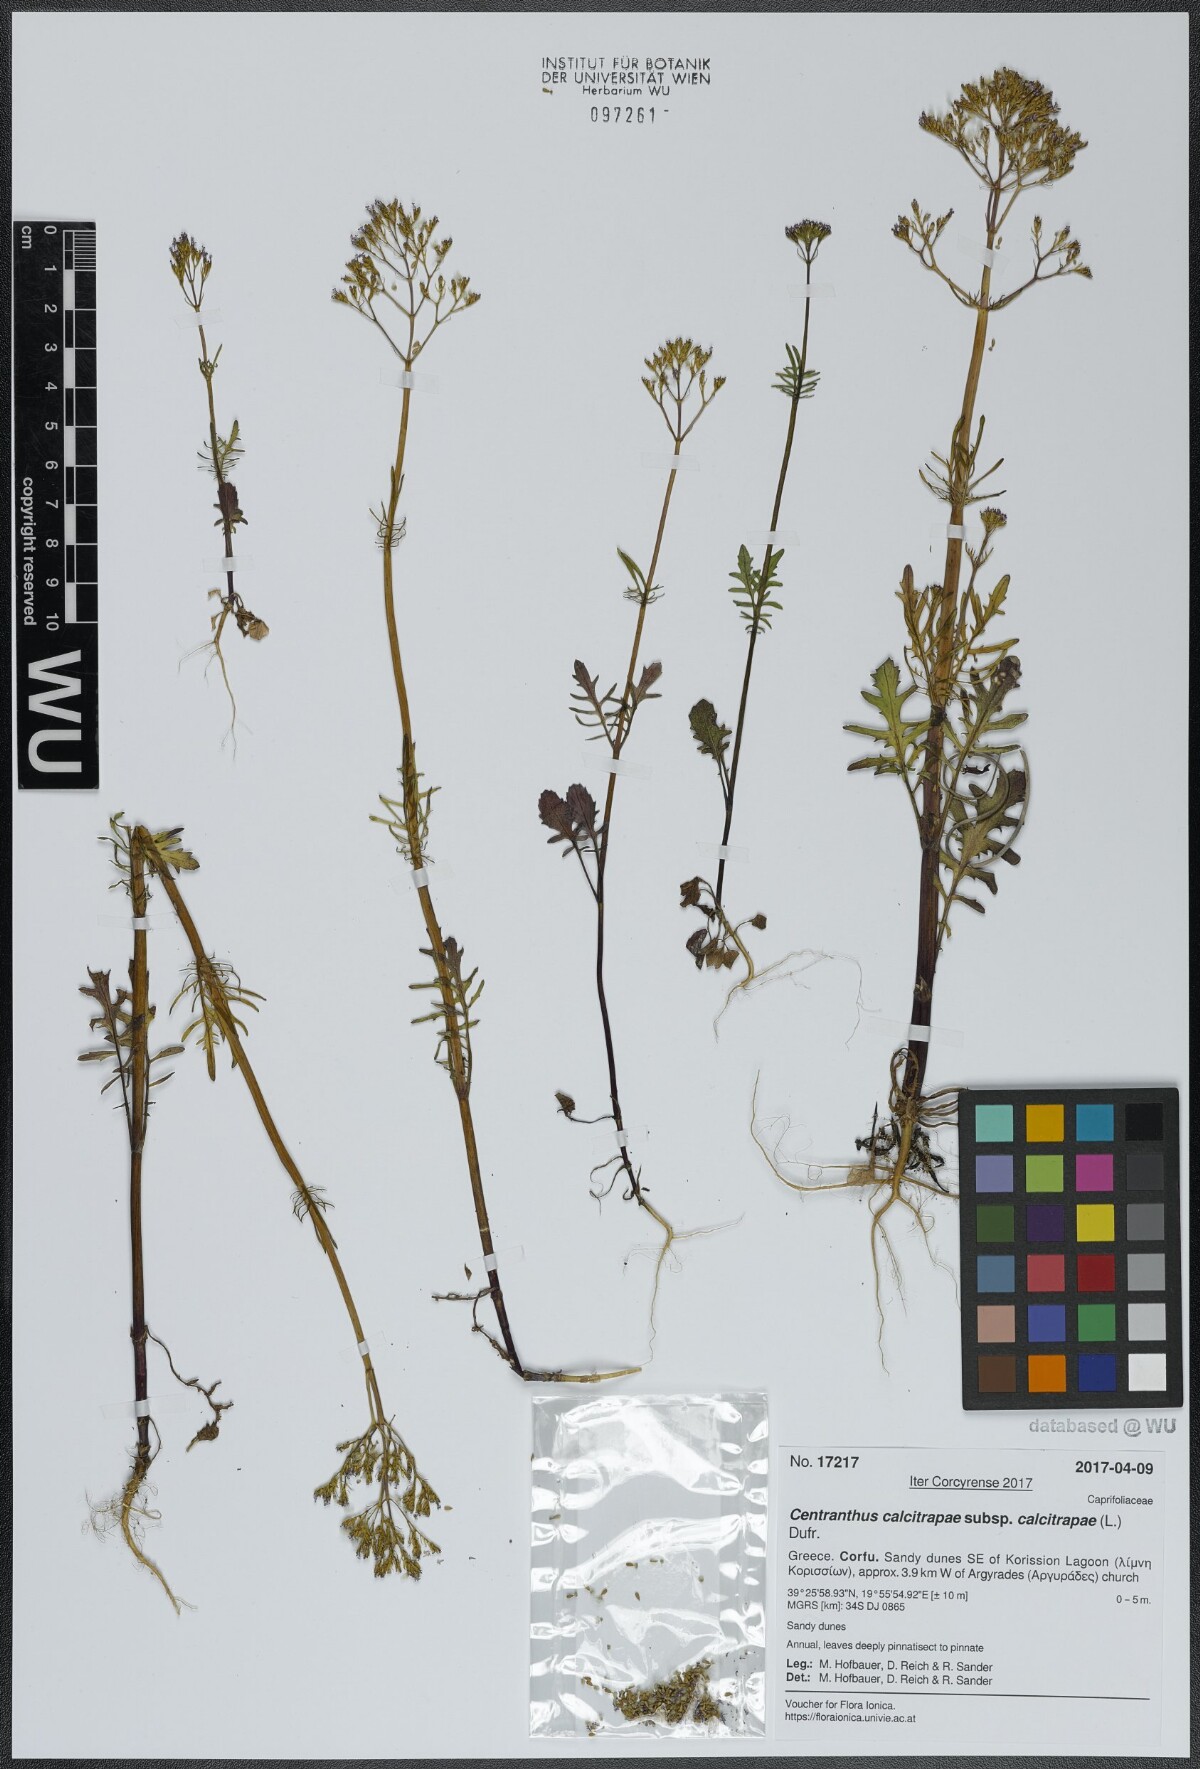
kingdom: Plantae
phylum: Tracheophyta
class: Magnoliopsida
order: Dipsacales
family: Caprifoliaceae
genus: Centranthus
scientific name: Centranthus calcitrapae
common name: Annual valerian
